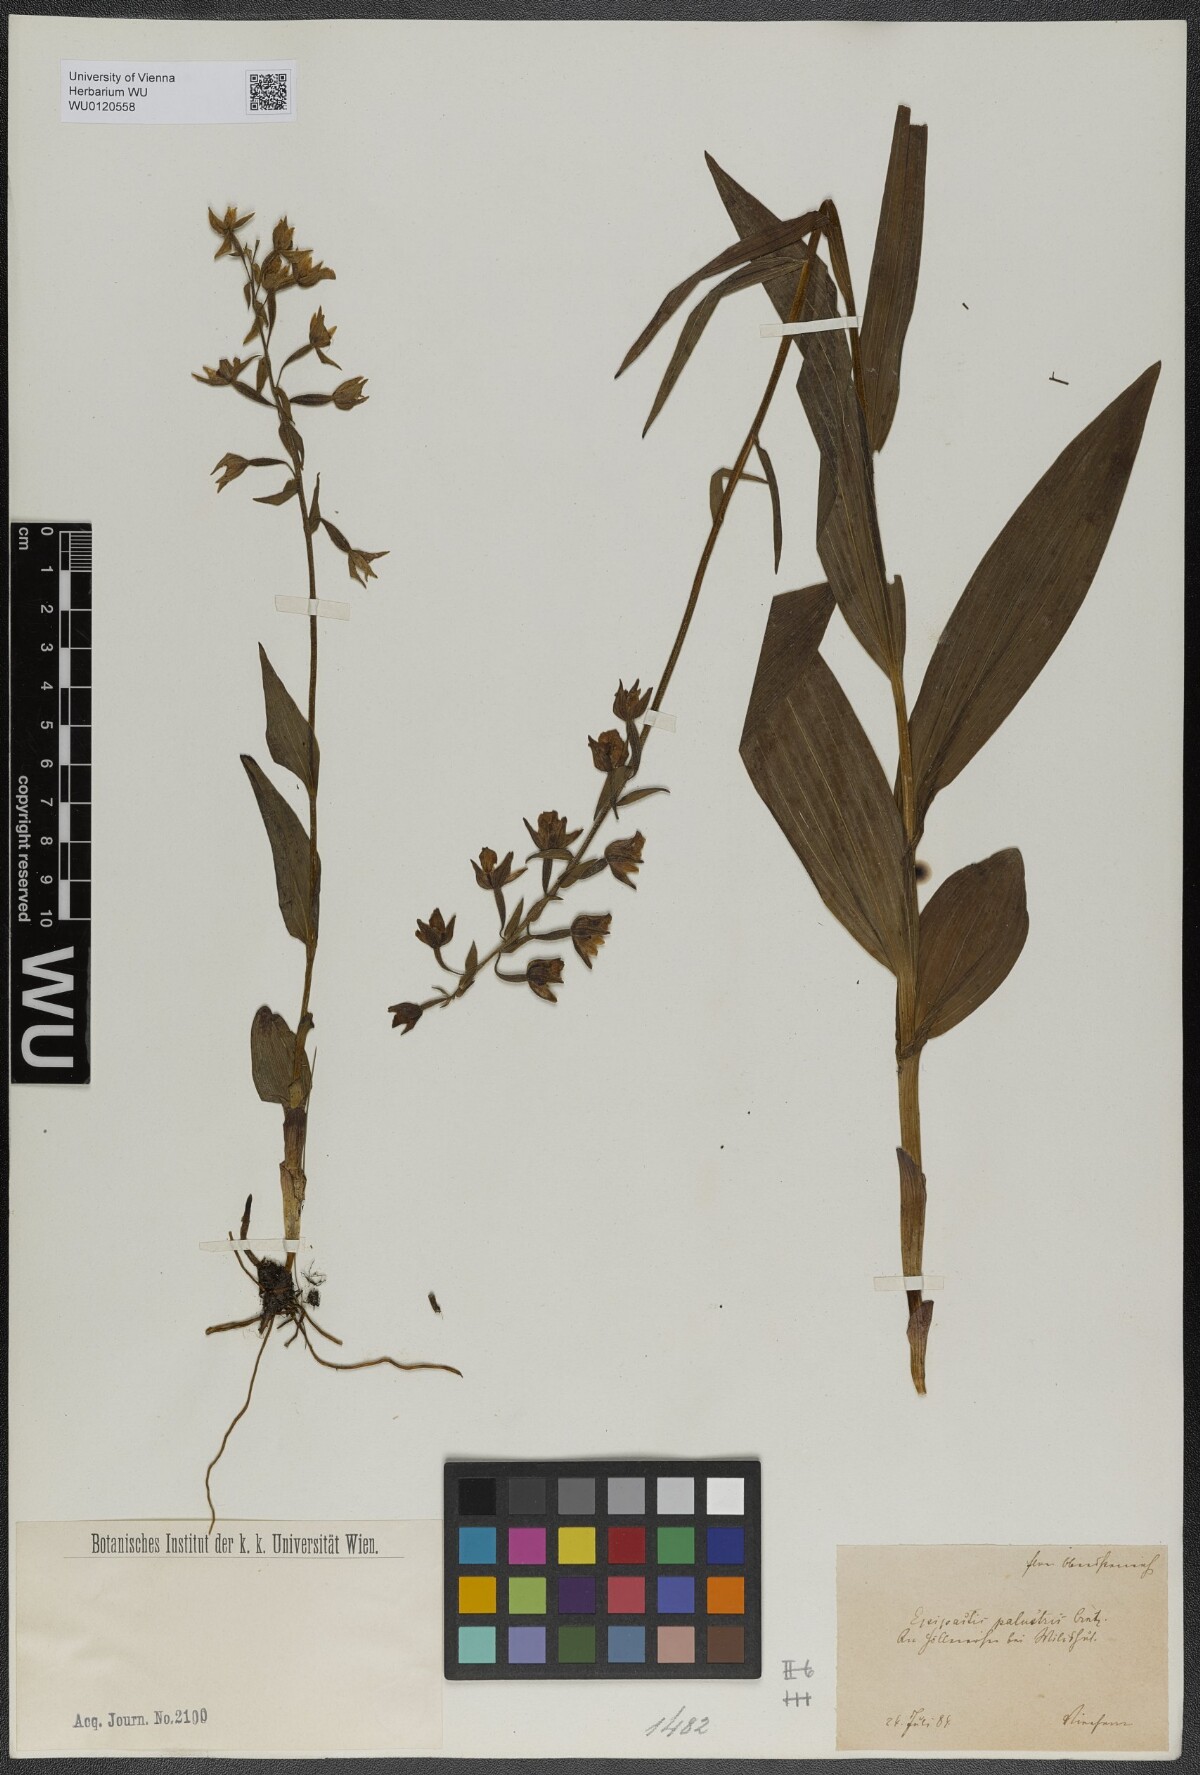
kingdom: Plantae
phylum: Tracheophyta
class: Liliopsida
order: Asparagales
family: Orchidaceae
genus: Epipactis
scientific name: Epipactis palustris
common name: Marsh helleborine
